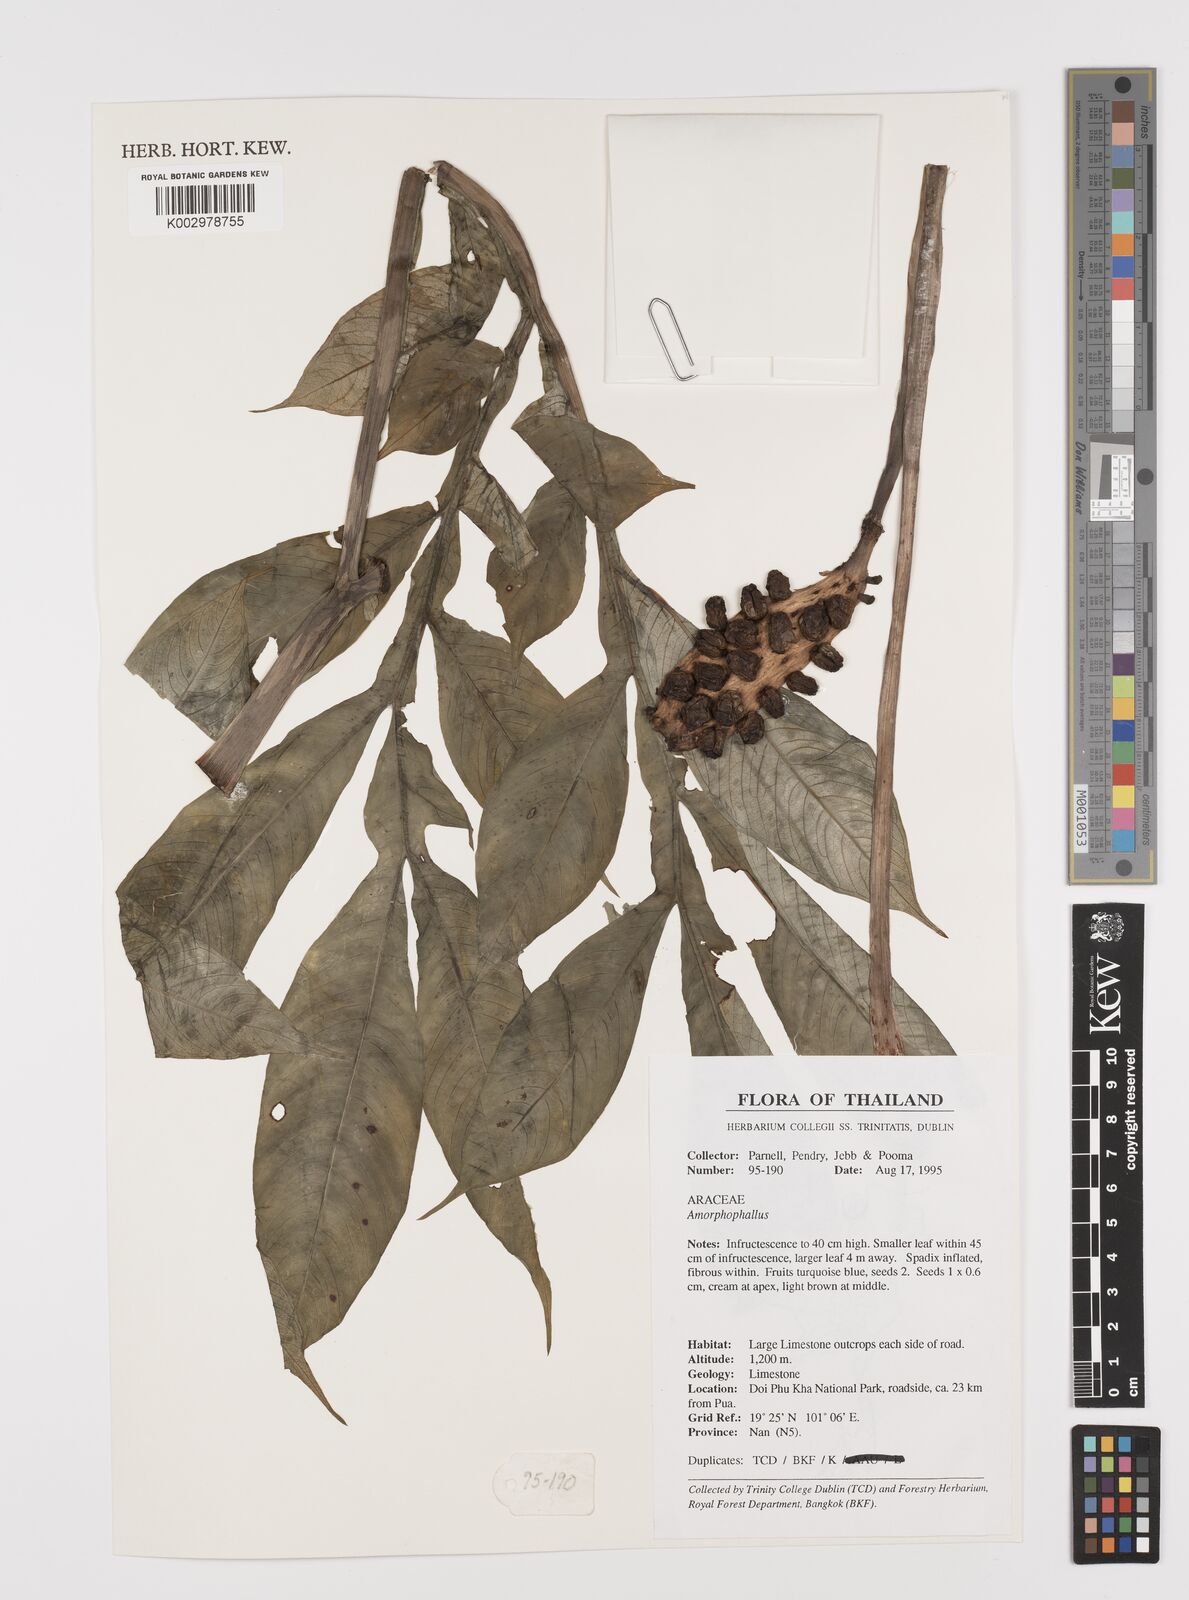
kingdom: Plantae
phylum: Tracheophyta
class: Liliopsida
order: Alismatales
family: Araceae
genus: Amorphophallus
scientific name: Amorphophallus
